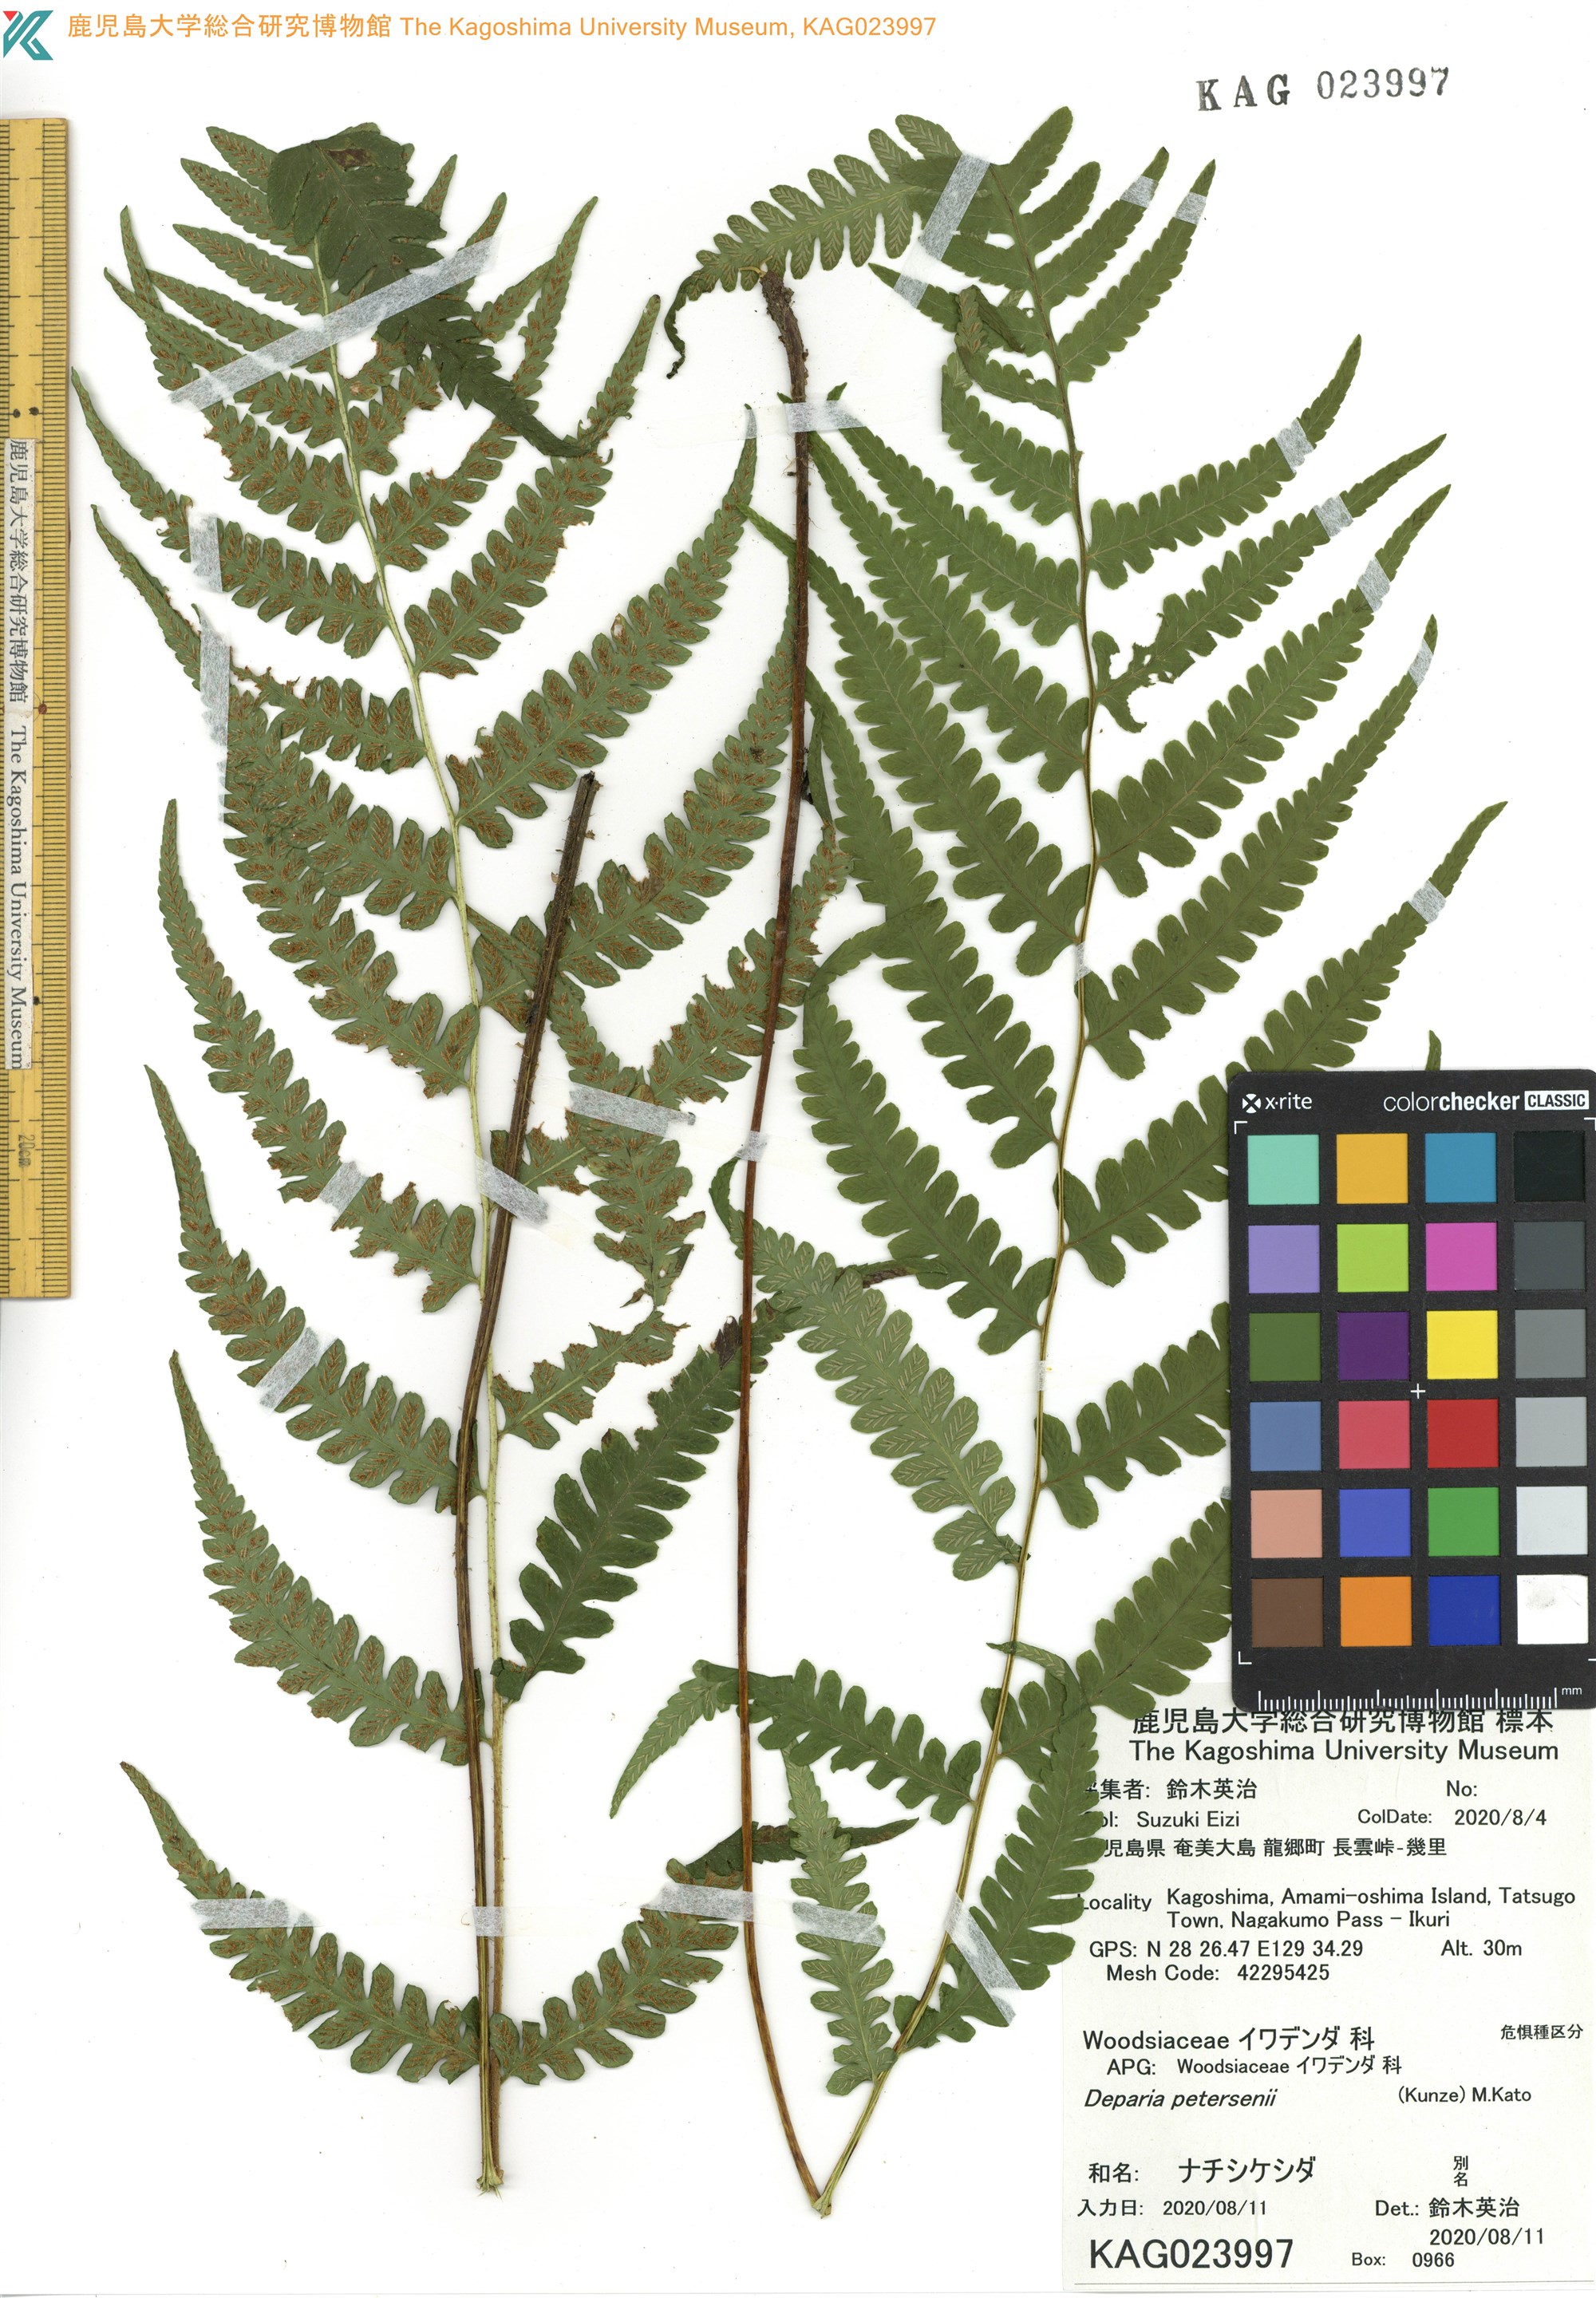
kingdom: Plantae
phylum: Tracheophyta
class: Polypodiopsida
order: Polypodiales
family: Athyriaceae
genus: Deparia
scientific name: Deparia petersenii
